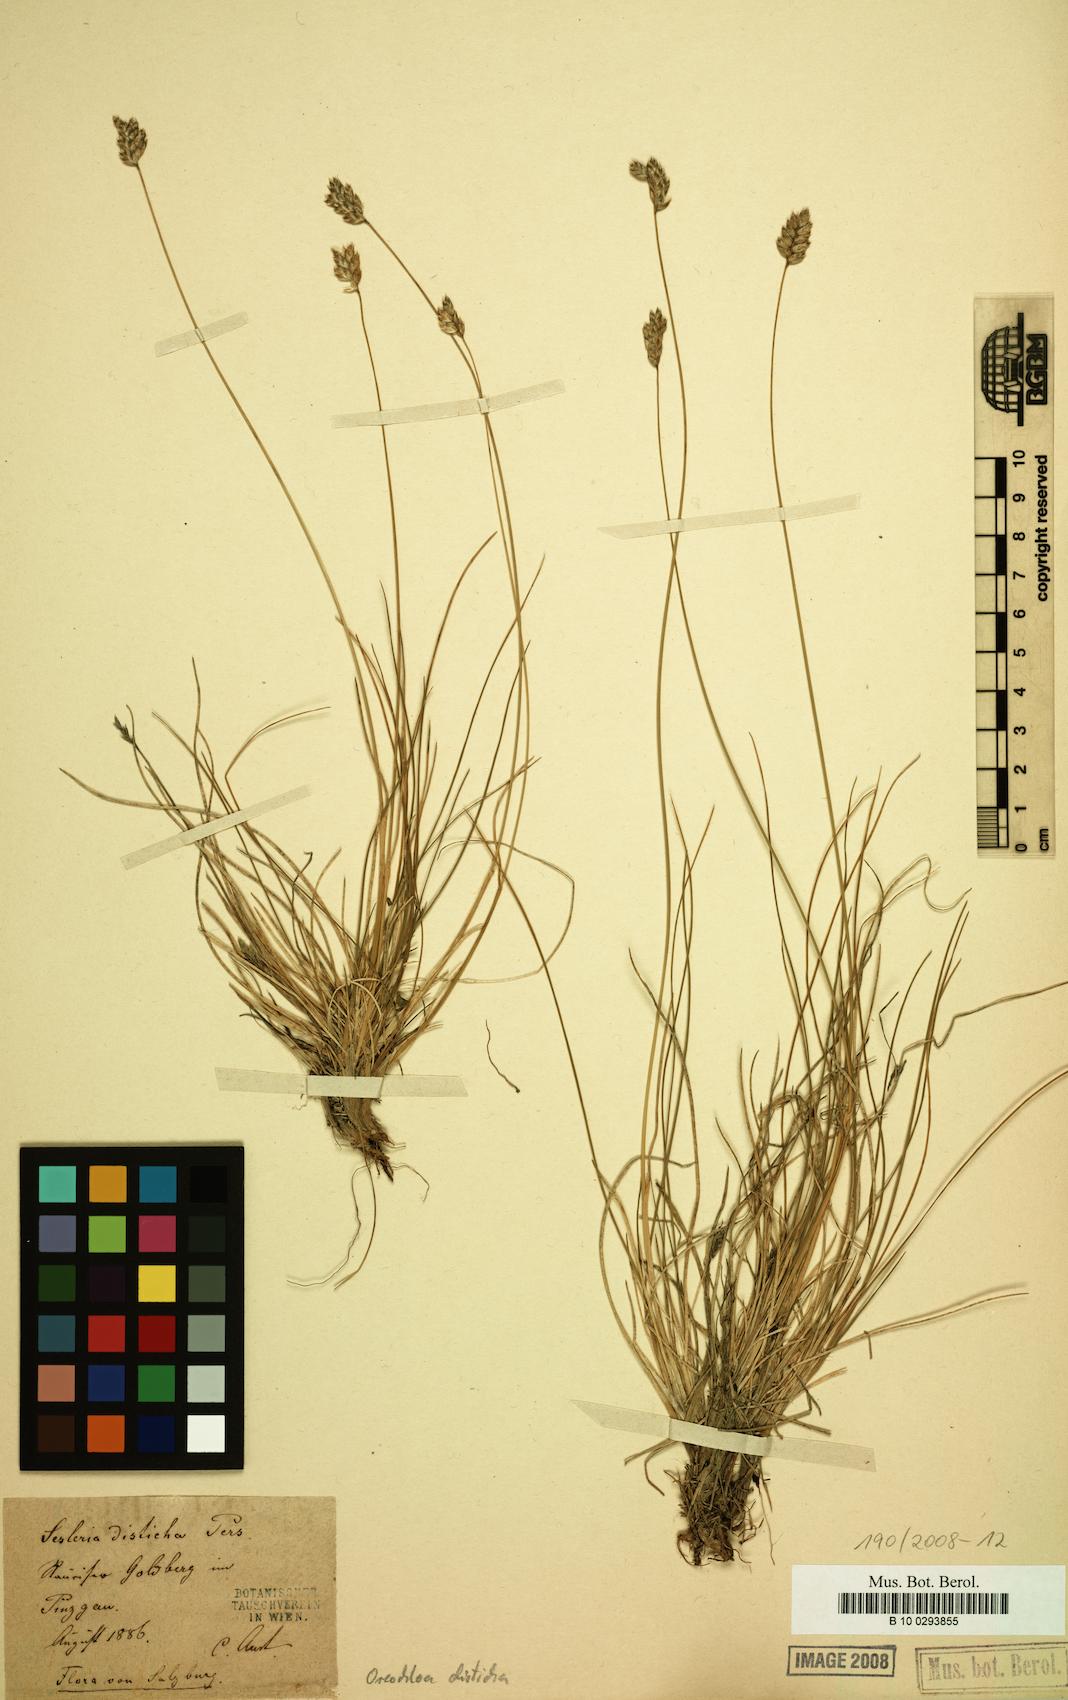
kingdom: Plantae
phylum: Tracheophyta
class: Liliopsida
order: Poales
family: Poaceae
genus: Oreochloa
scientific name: Oreochloa disticha
